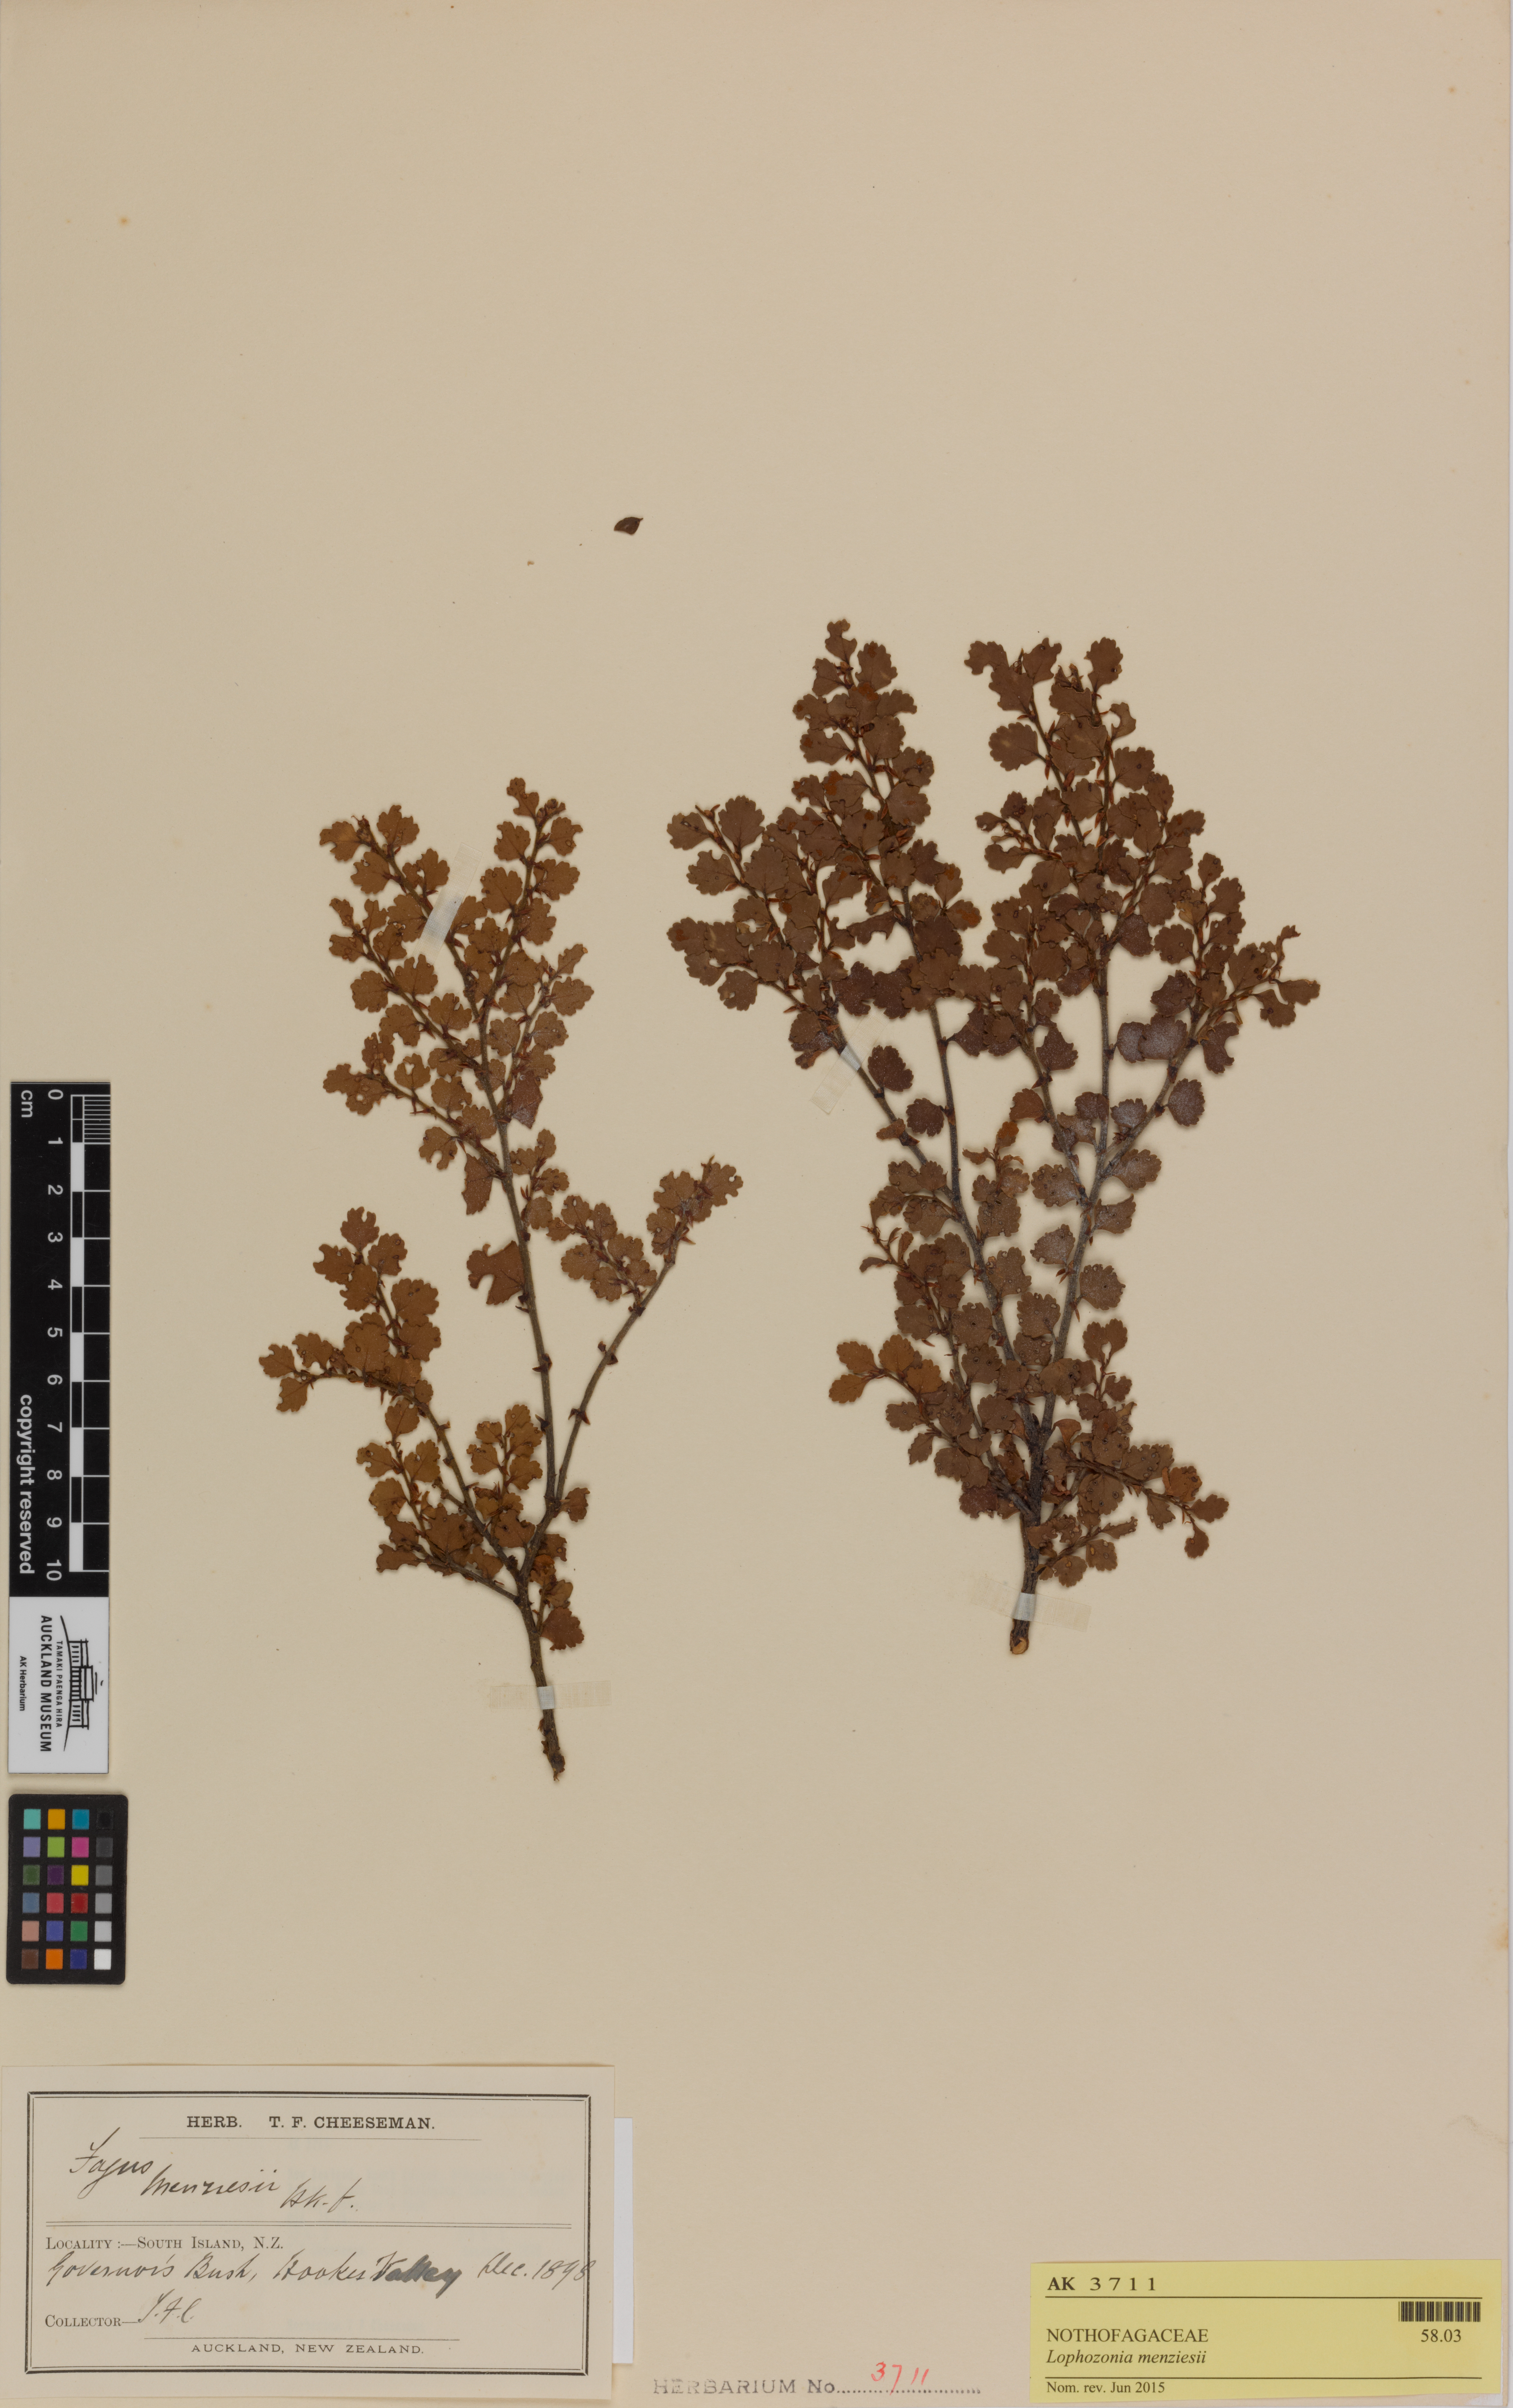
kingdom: Plantae
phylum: Tracheophyta
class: Magnoliopsida
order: Fagales
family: Nothofagaceae
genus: Nothofagus
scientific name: Nothofagus menziesii
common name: Silver beech
